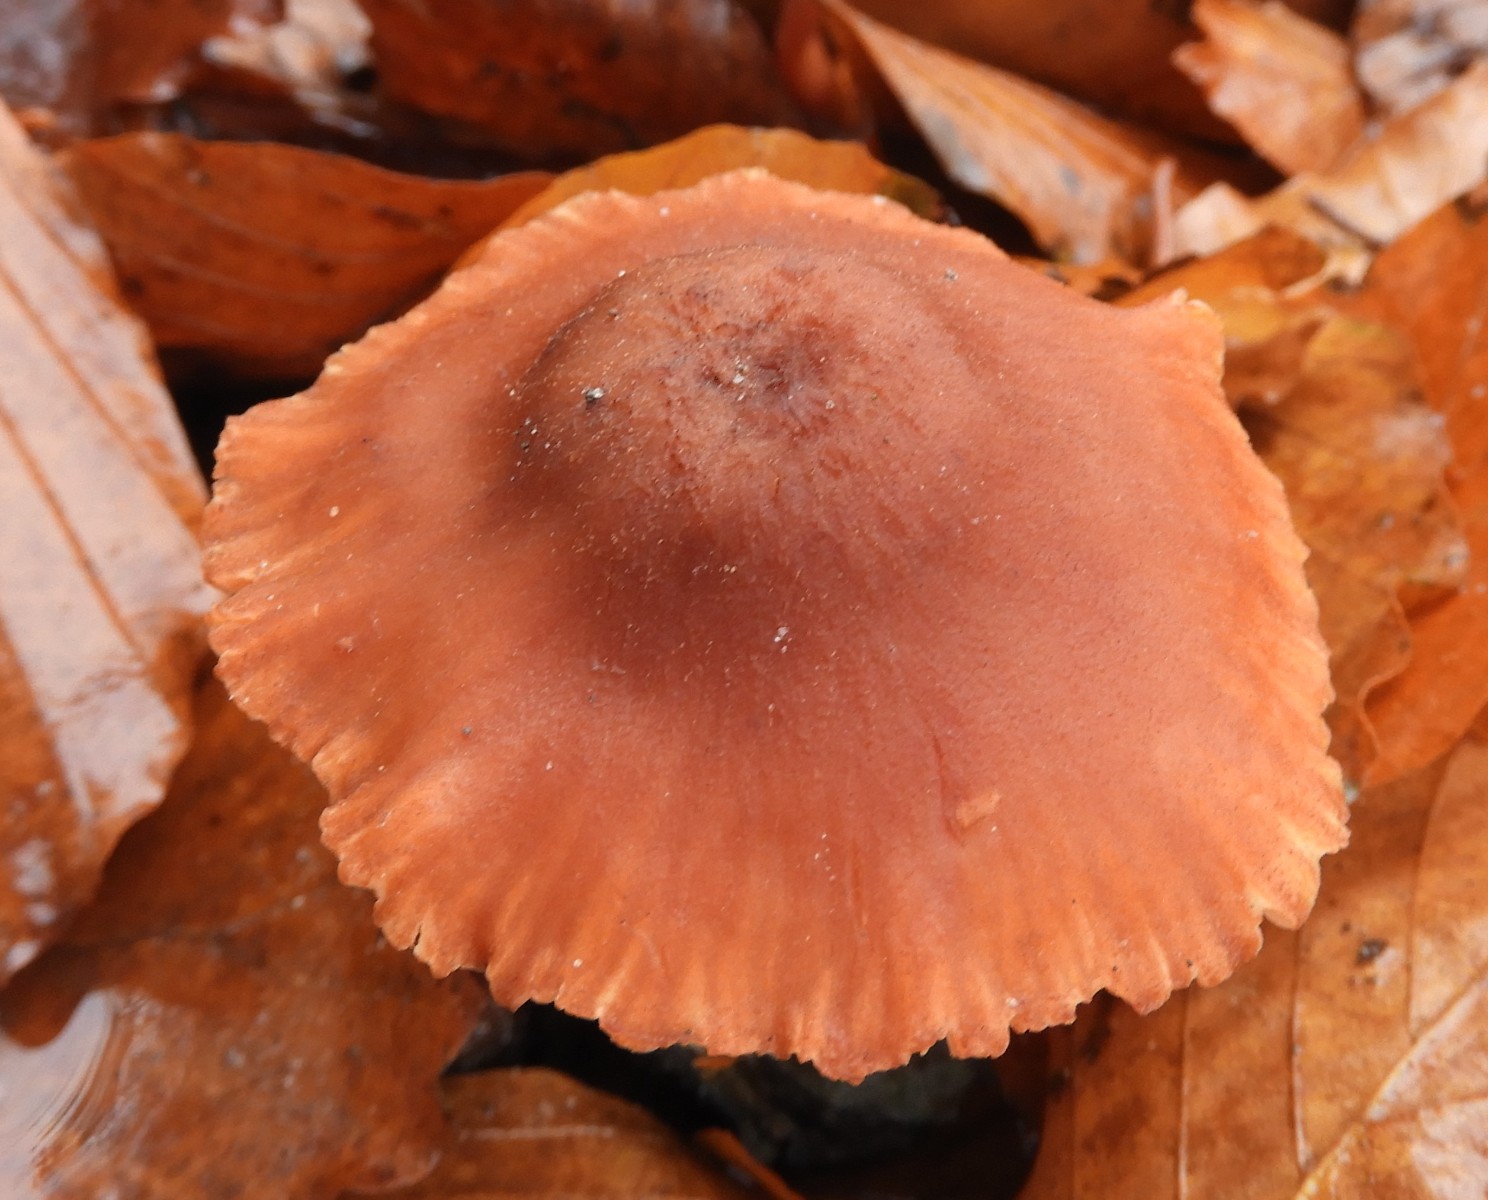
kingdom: Fungi
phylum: Basidiomycota
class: Agaricomycetes
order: Agaricales
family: Hydnangiaceae
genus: Laccaria
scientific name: Laccaria proxima
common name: stor ametysthat
